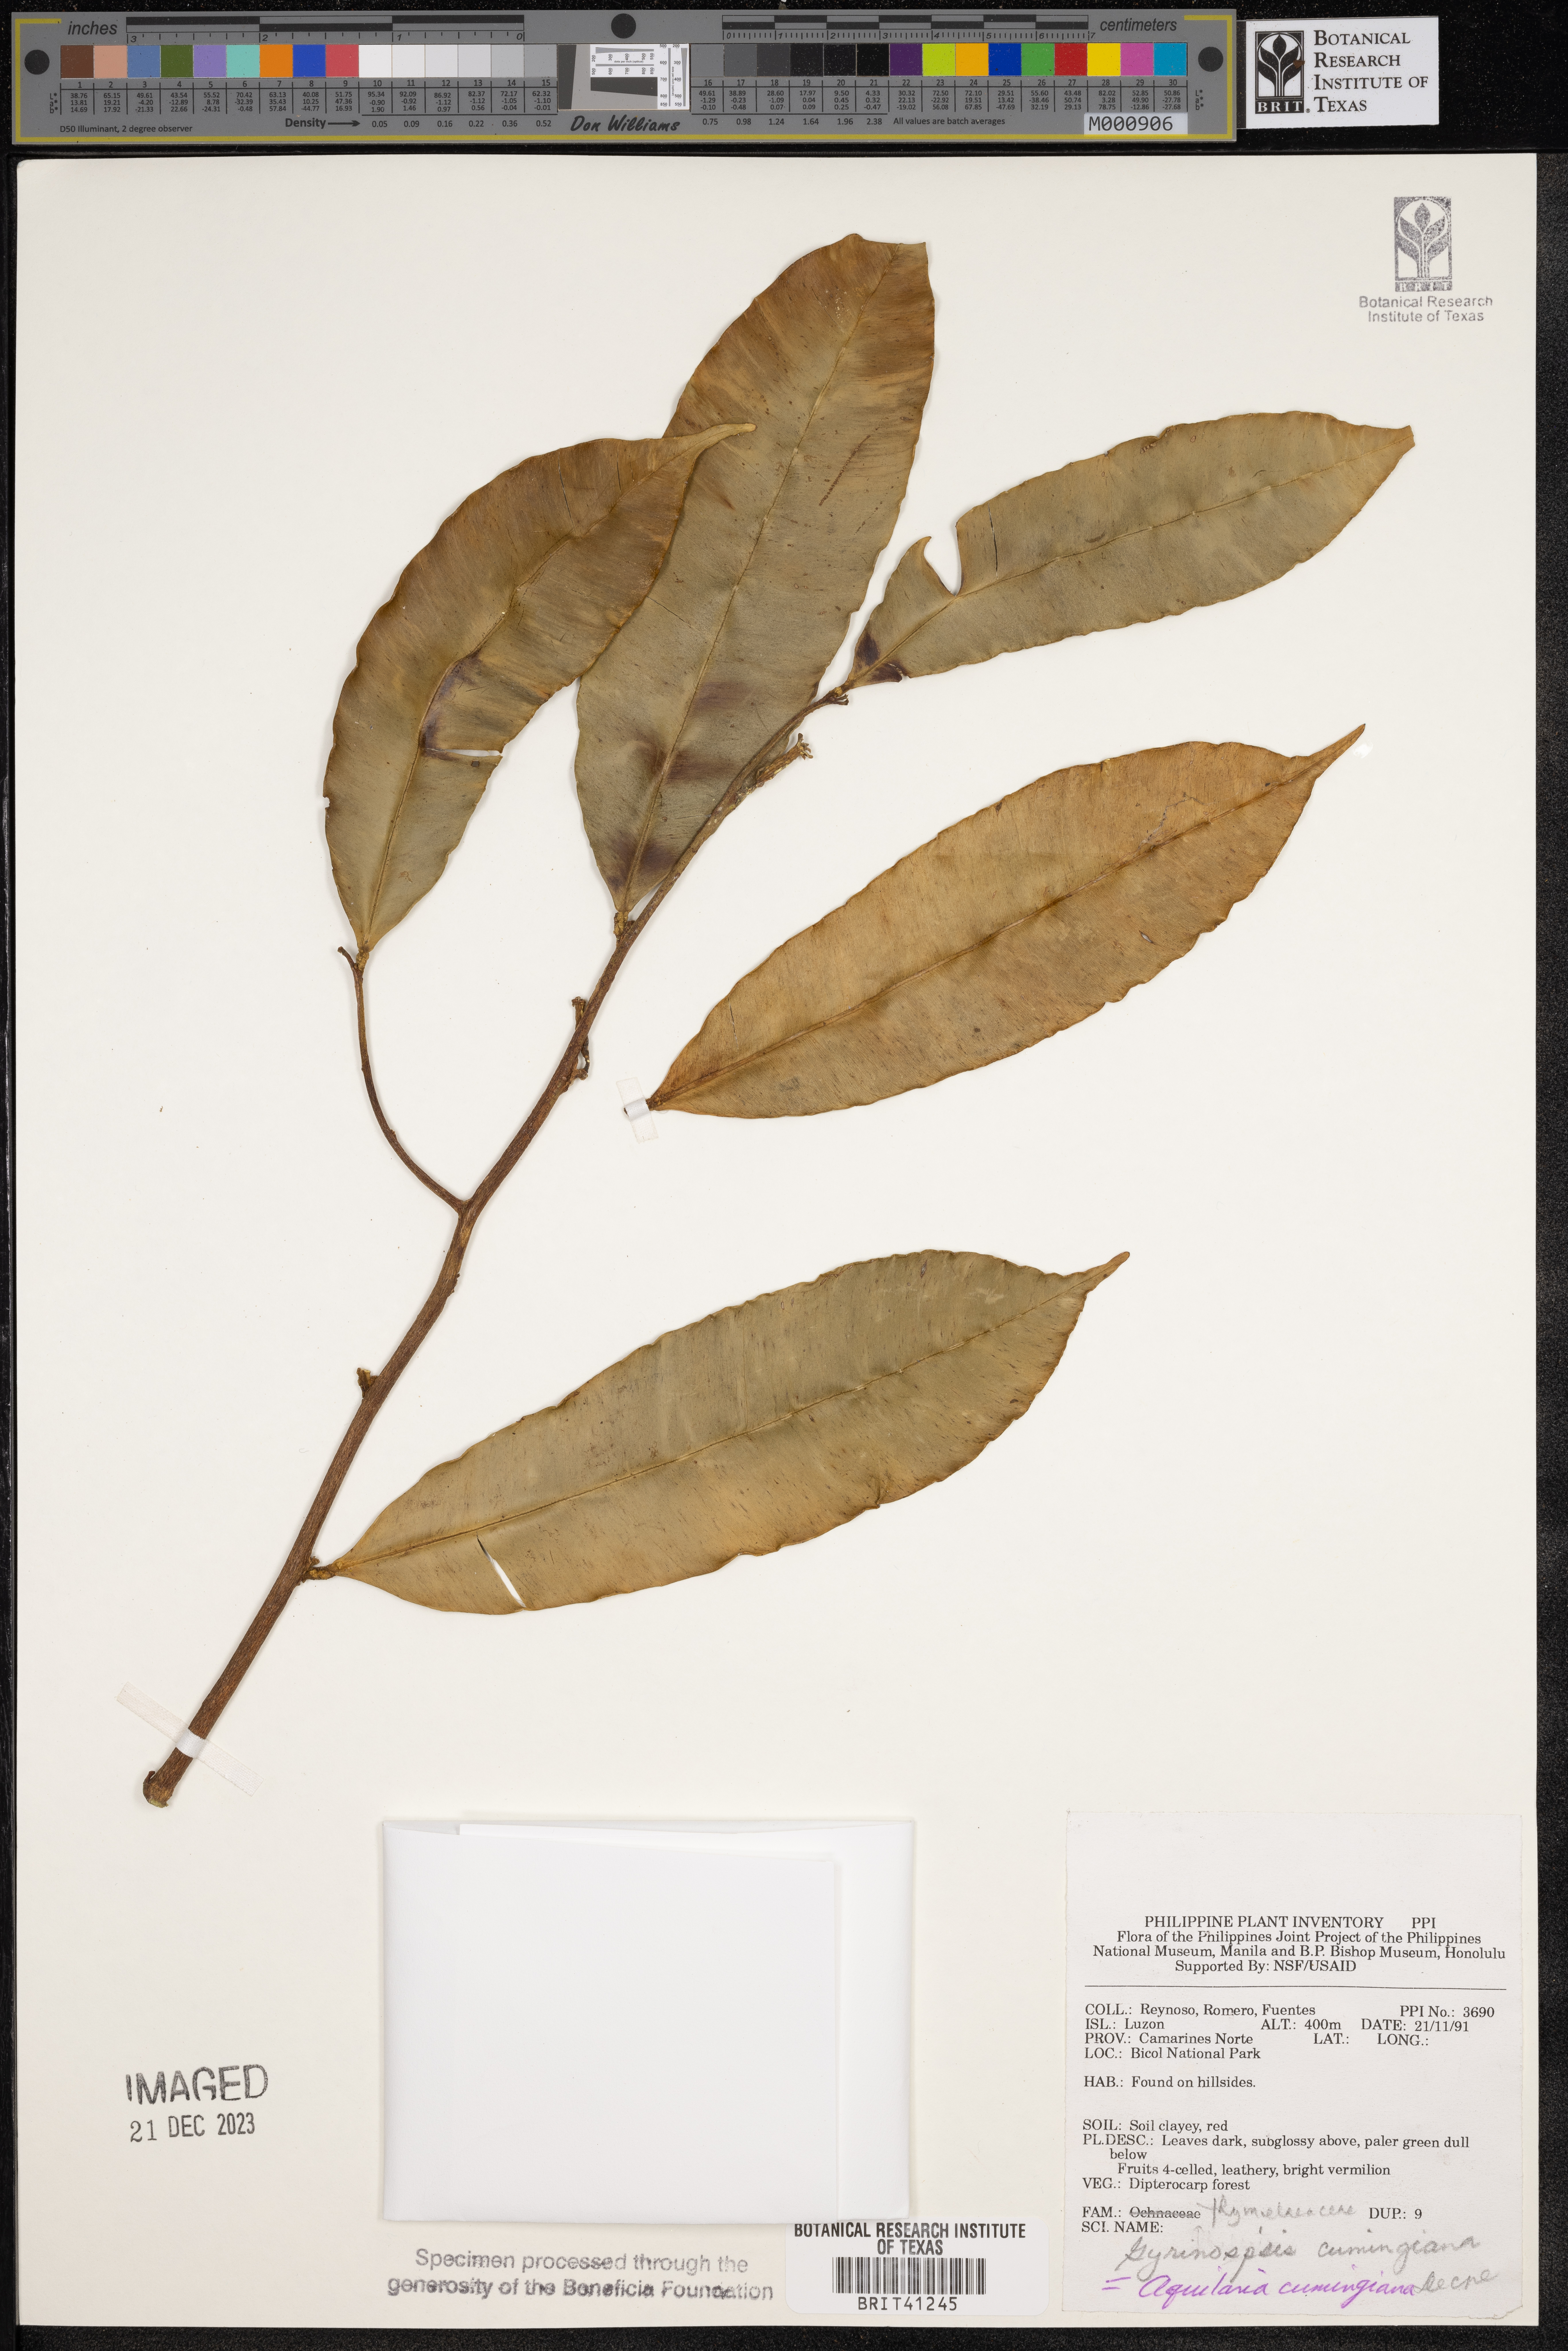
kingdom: Plantae
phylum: Tracheophyta
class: Magnoliopsida
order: Malvales
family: Thymelaeaceae
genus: Aquilaria
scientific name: Aquilaria cumingiana
